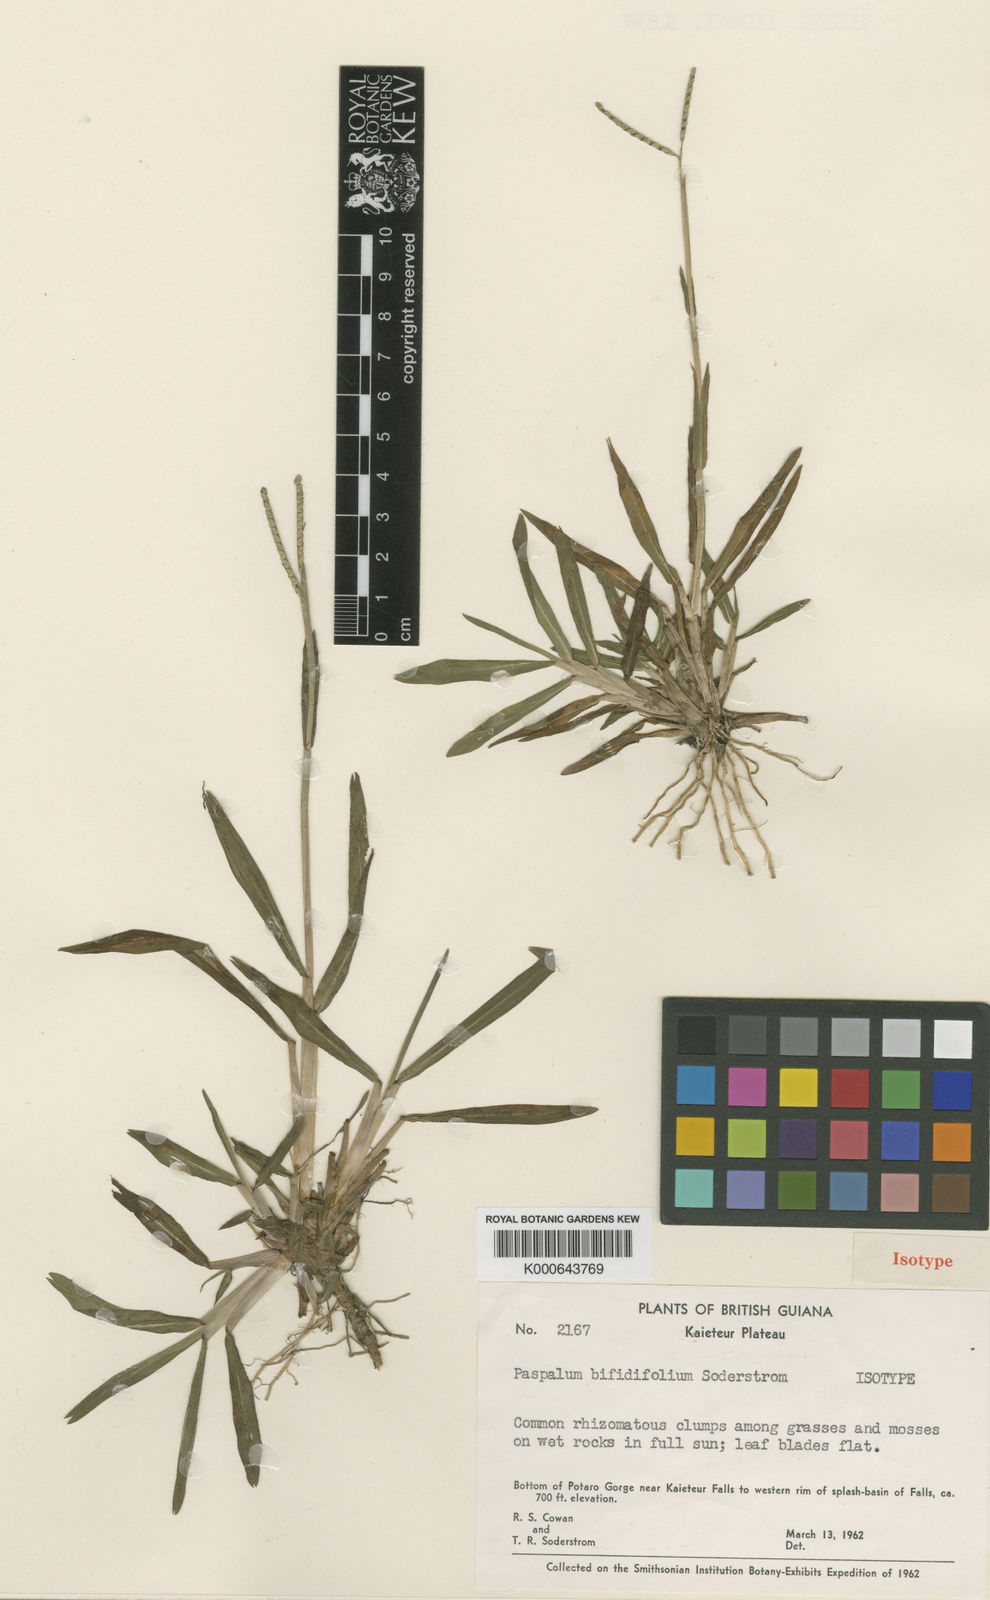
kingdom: Plantae
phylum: Tracheophyta
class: Liliopsida
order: Poales
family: Poaceae
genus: Paspalum
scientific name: Paspalum bifidifolium
